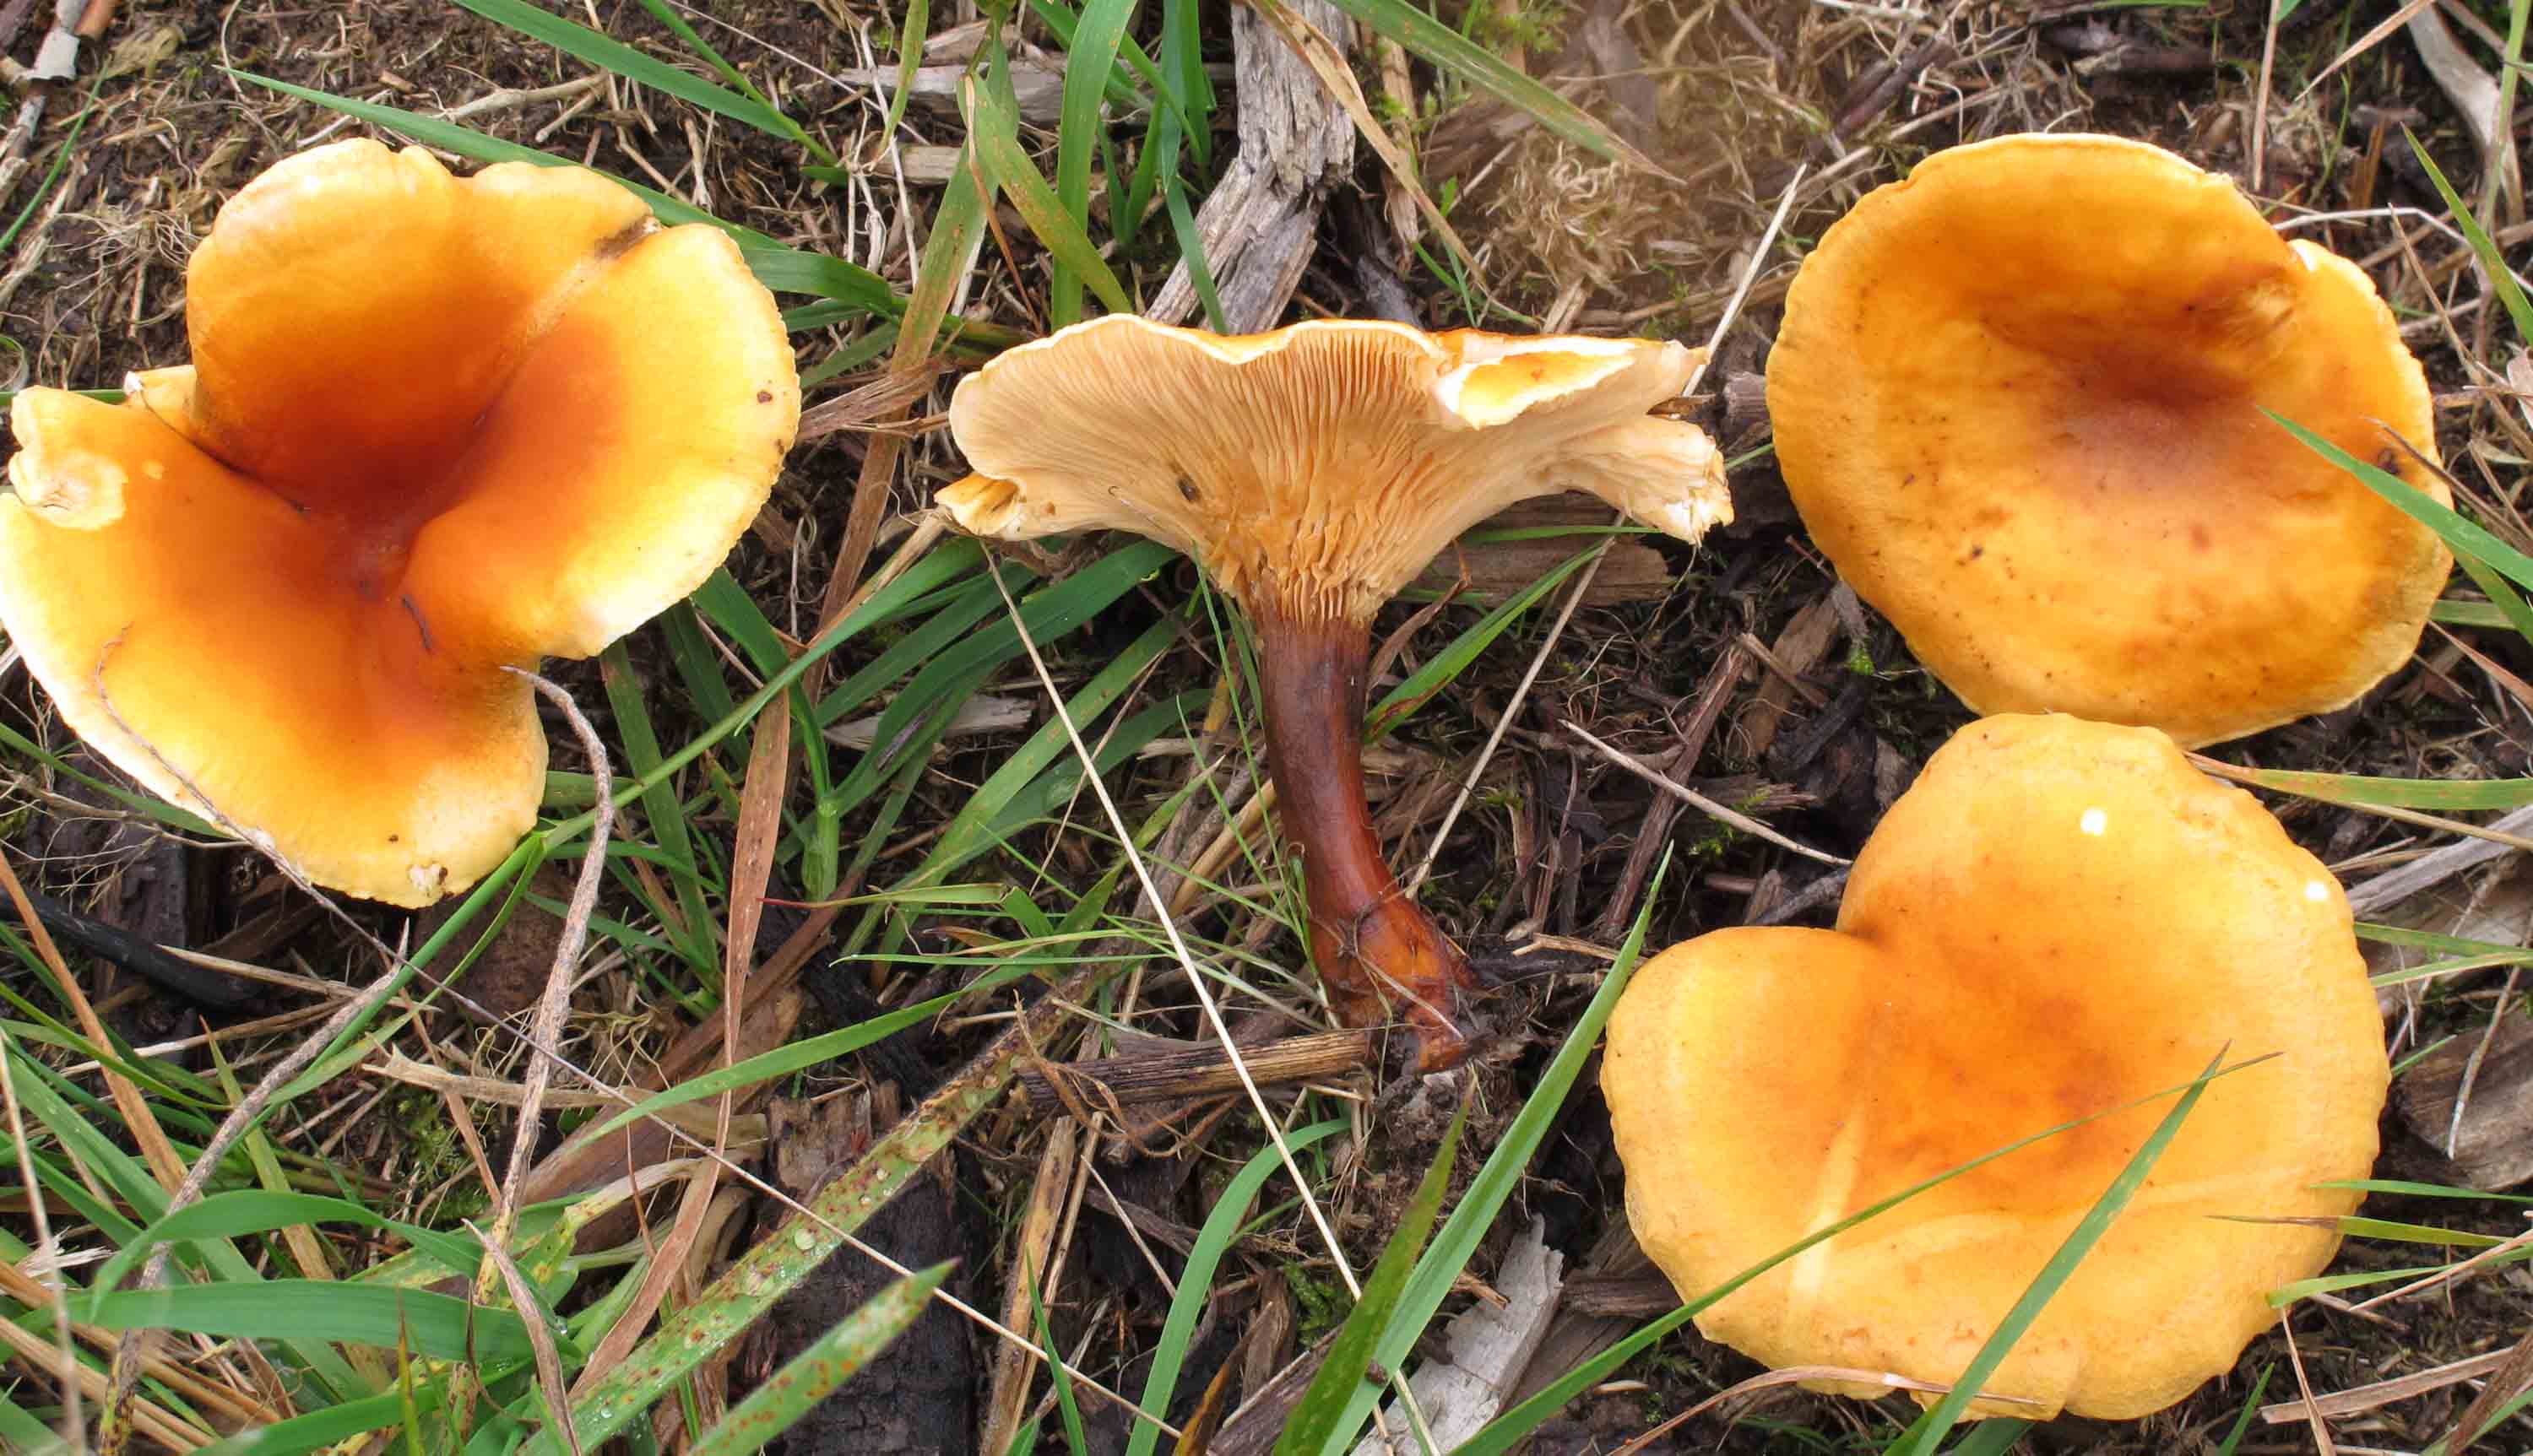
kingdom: Fungi
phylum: Basidiomycota
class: Agaricomycetes
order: Boletales
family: Hygrophoropsidaceae
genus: Hygrophoropsis
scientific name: Hygrophoropsis aurantiaca
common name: almindelig orangekantarel
